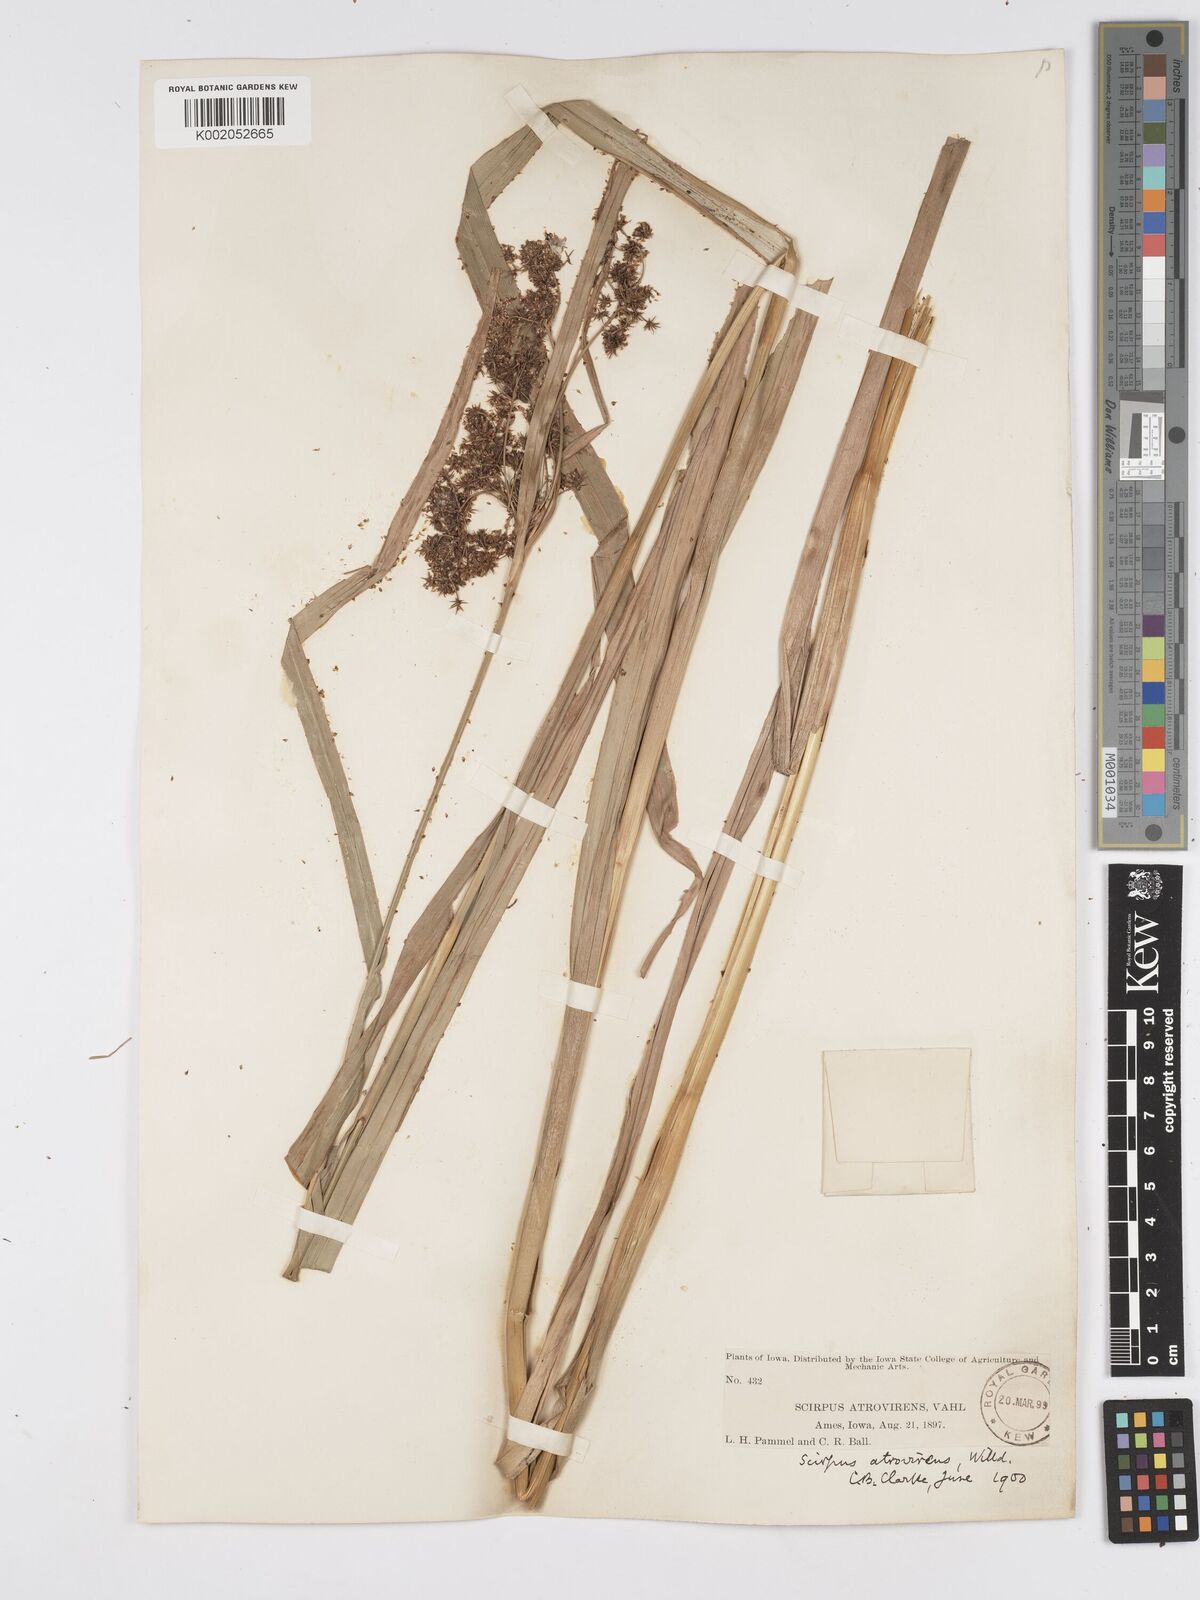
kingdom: Plantae
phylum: Tracheophyta
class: Liliopsida
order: Poales
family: Cyperaceae
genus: Scirpus
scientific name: Scirpus atrovirens
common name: Black bulrush
